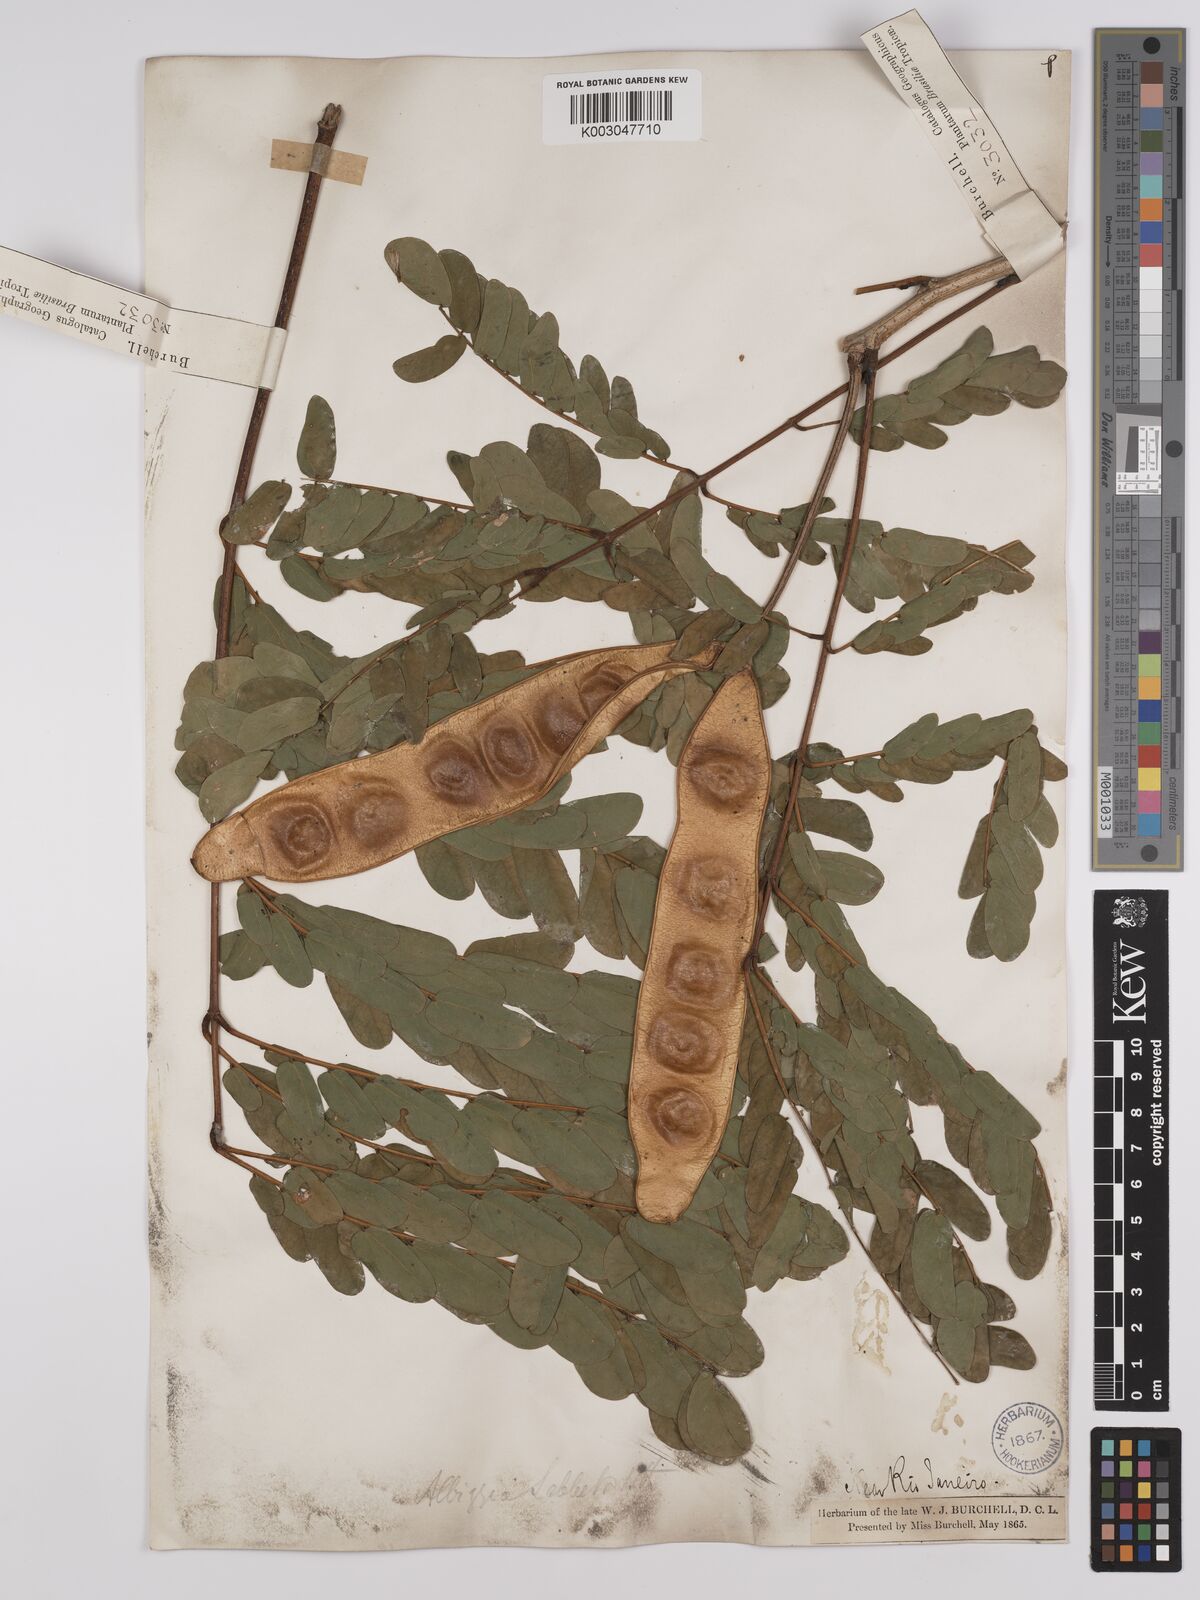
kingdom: Plantae
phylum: Tracheophyta
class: Magnoliopsida
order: Fabales
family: Fabaceae
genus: Albizia
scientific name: Albizia lebbeck
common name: Woman's tongue
